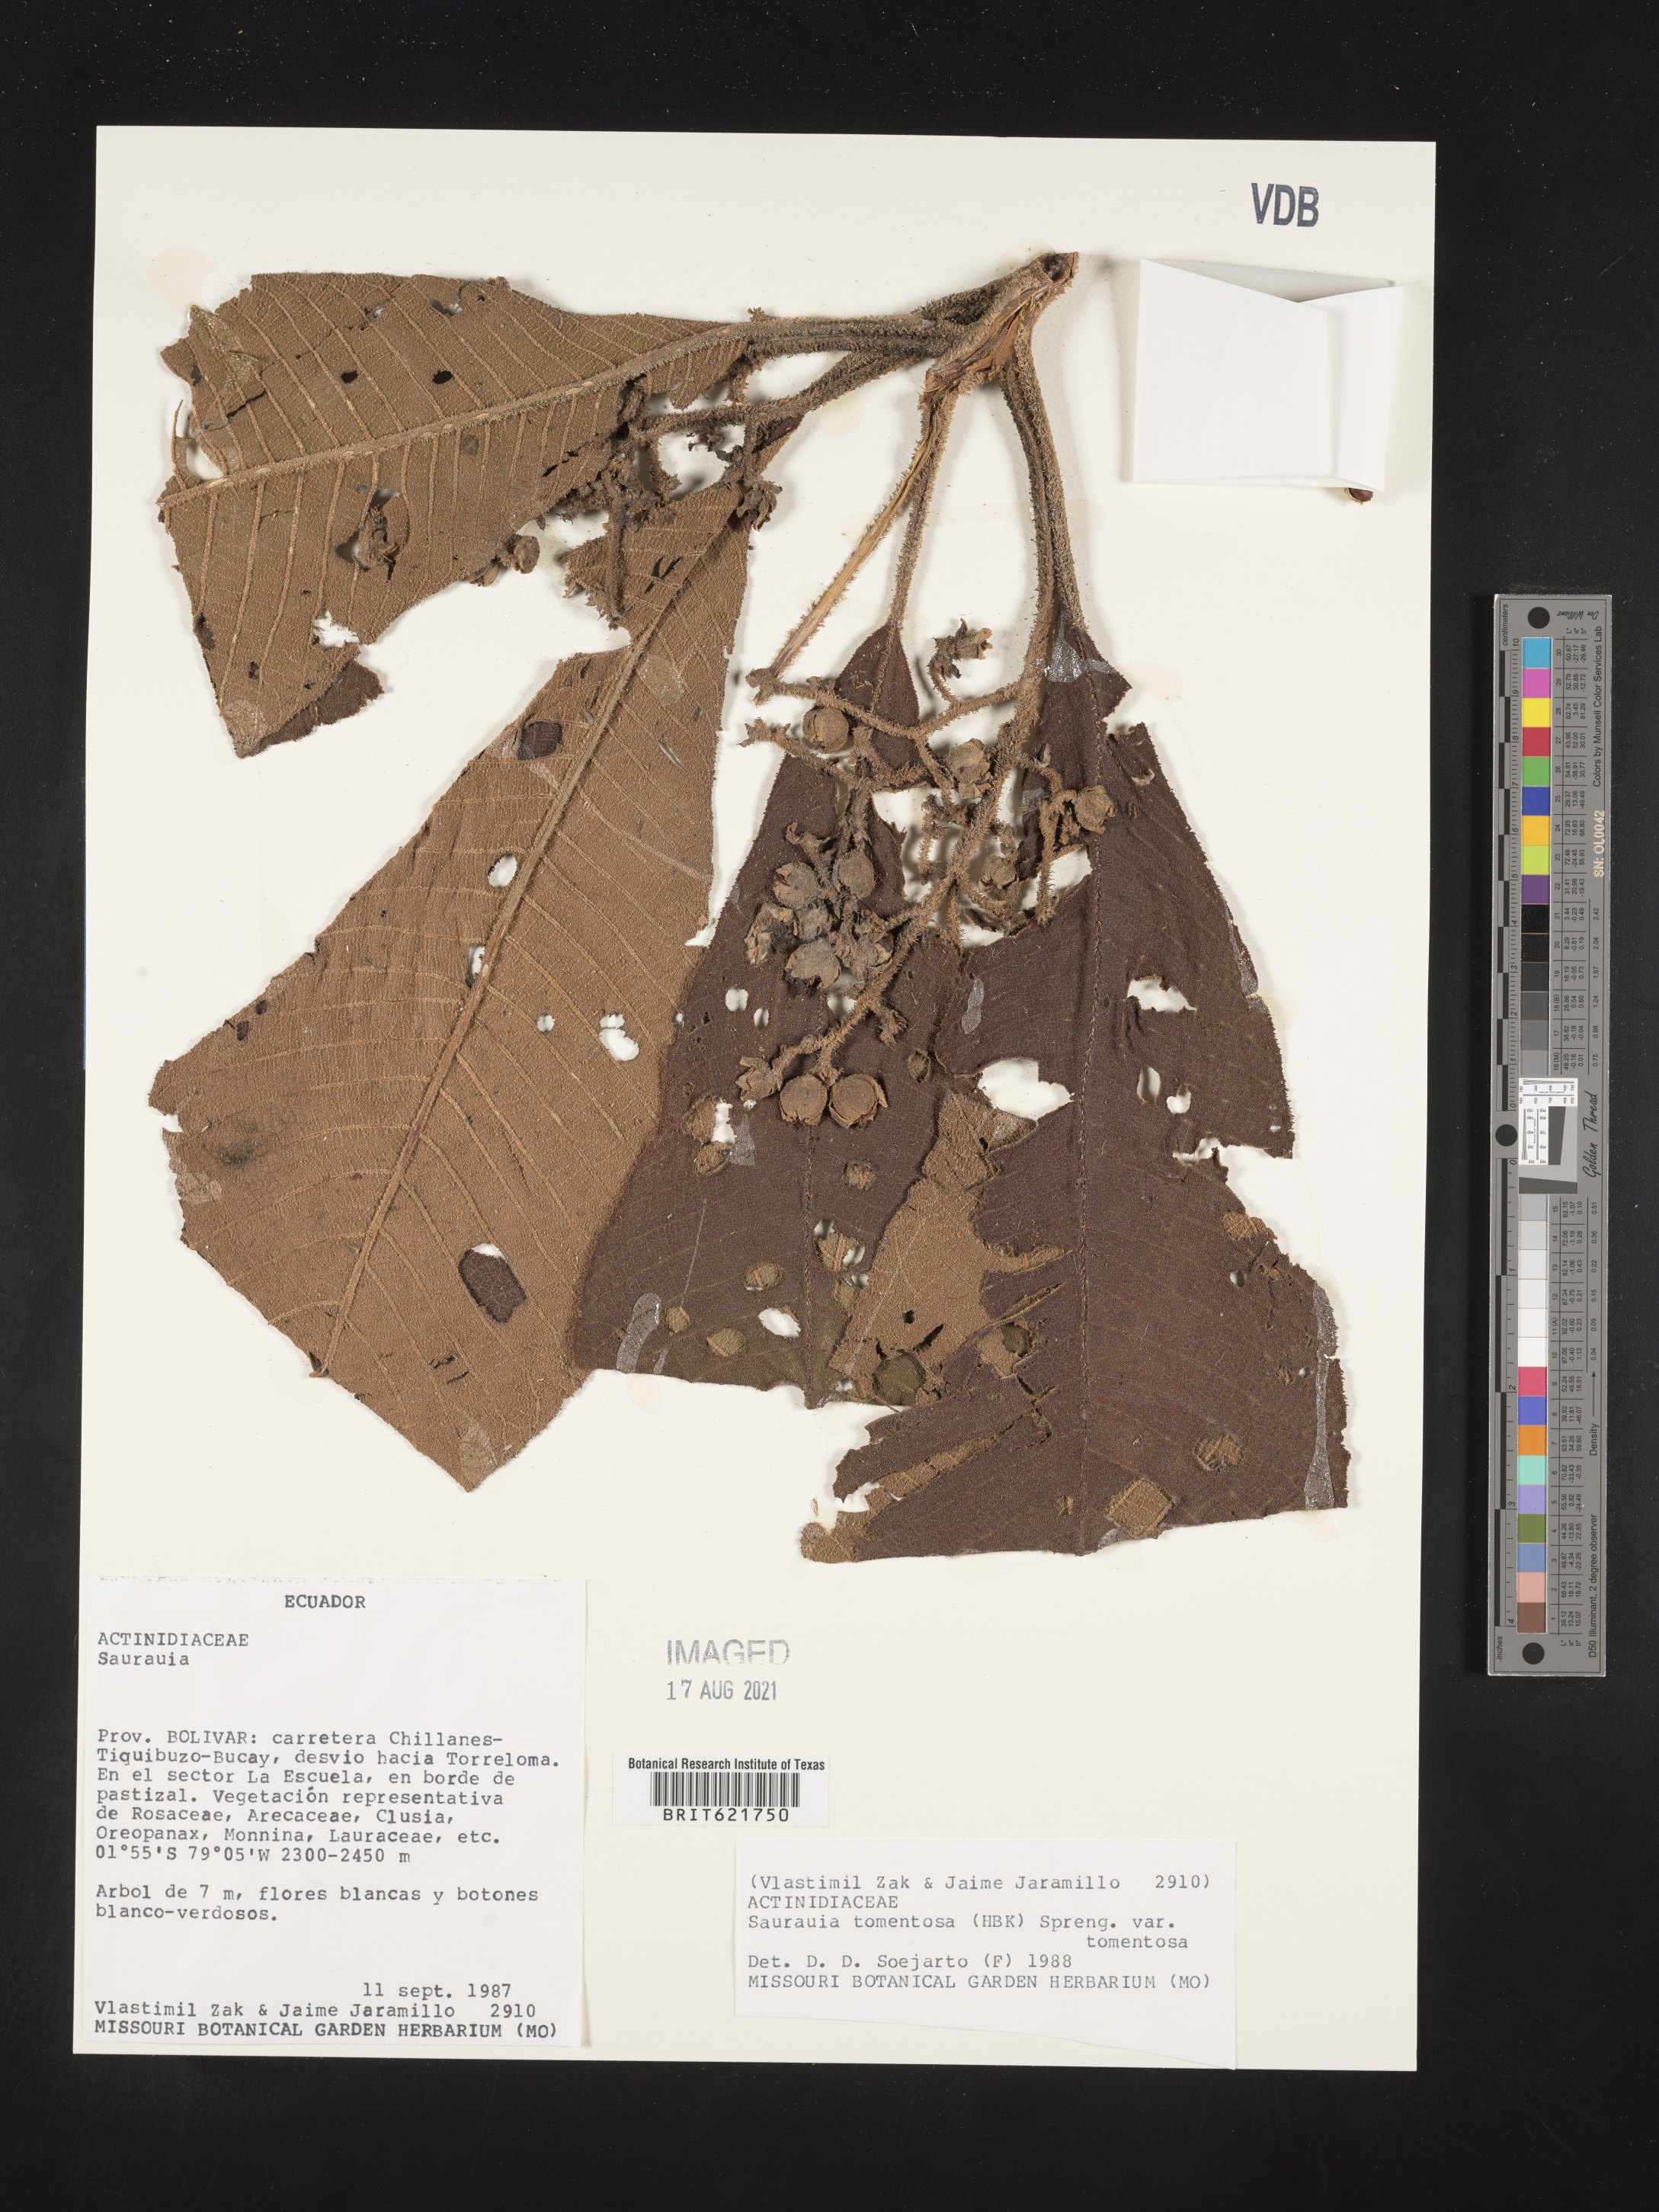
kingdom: Plantae
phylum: Tracheophyta
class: Magnoliopsida
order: Ericales
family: Actinidiaceae
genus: Saurauia
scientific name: Saurauia tomentosa
